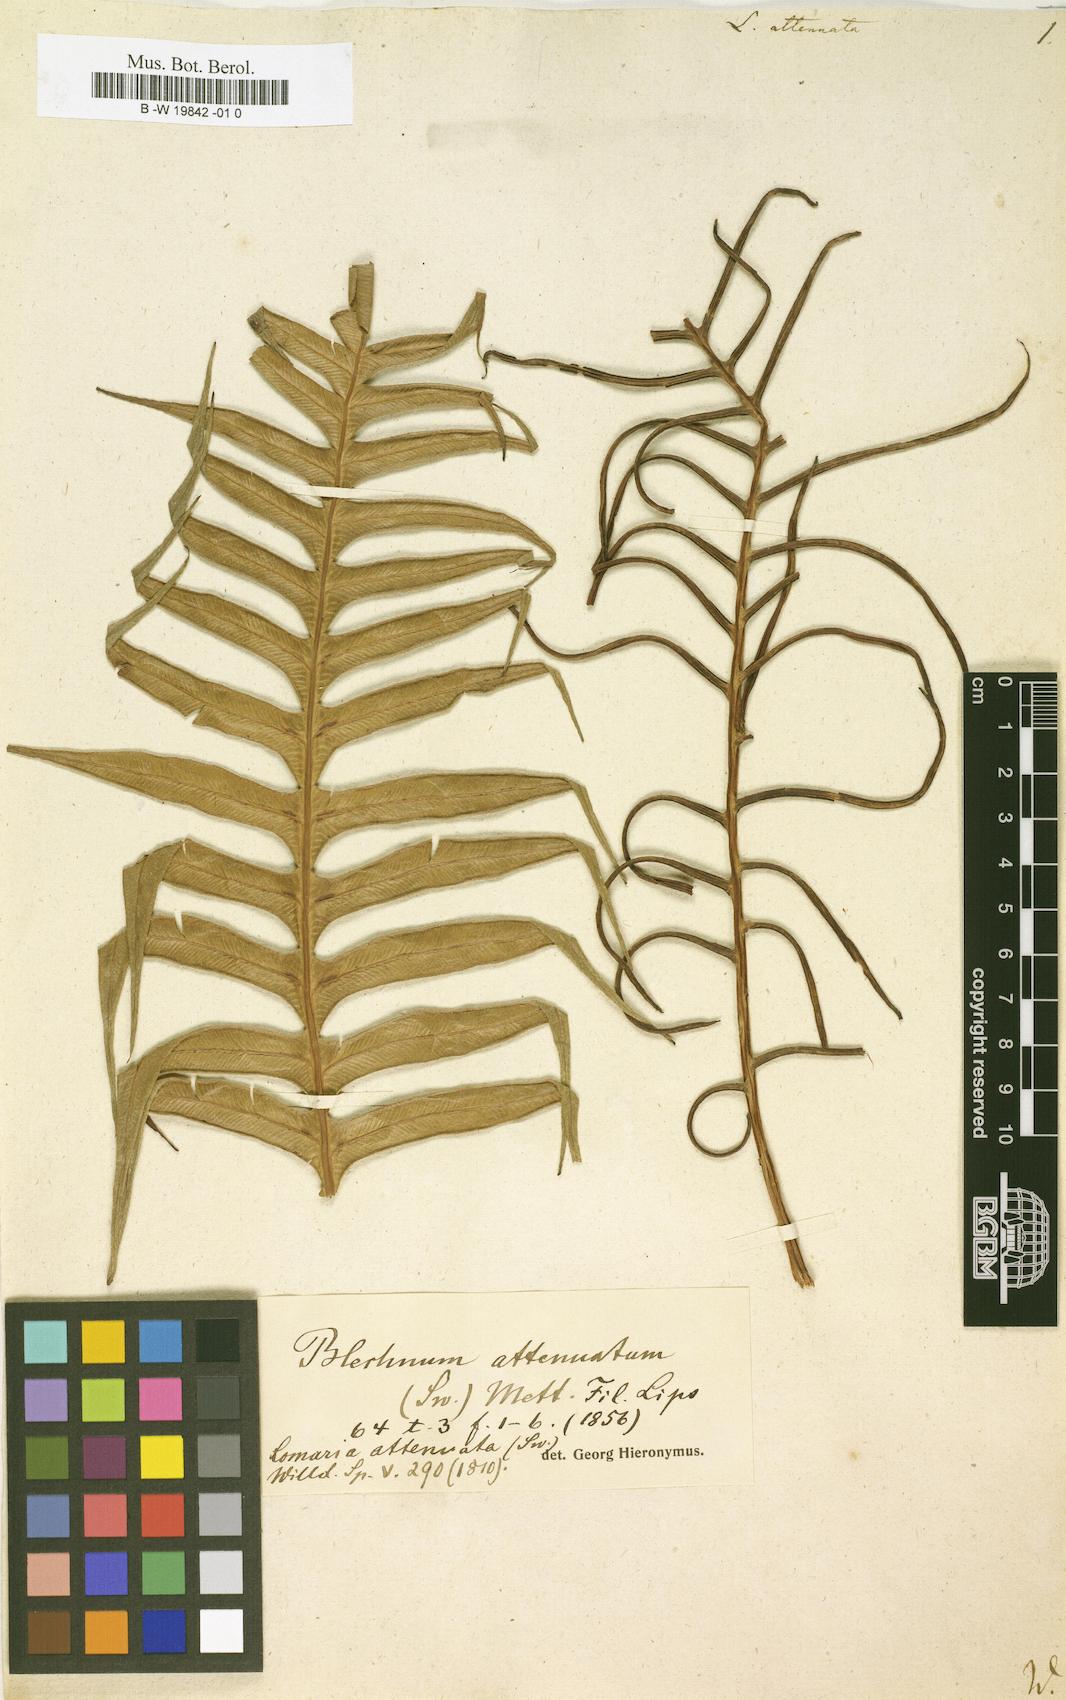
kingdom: Plantae
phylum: Tracheophyta
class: Polypodiopsida
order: Polypodiales
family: Blechnaceae
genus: Lomaridium
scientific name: Lomaridium attenuatum
